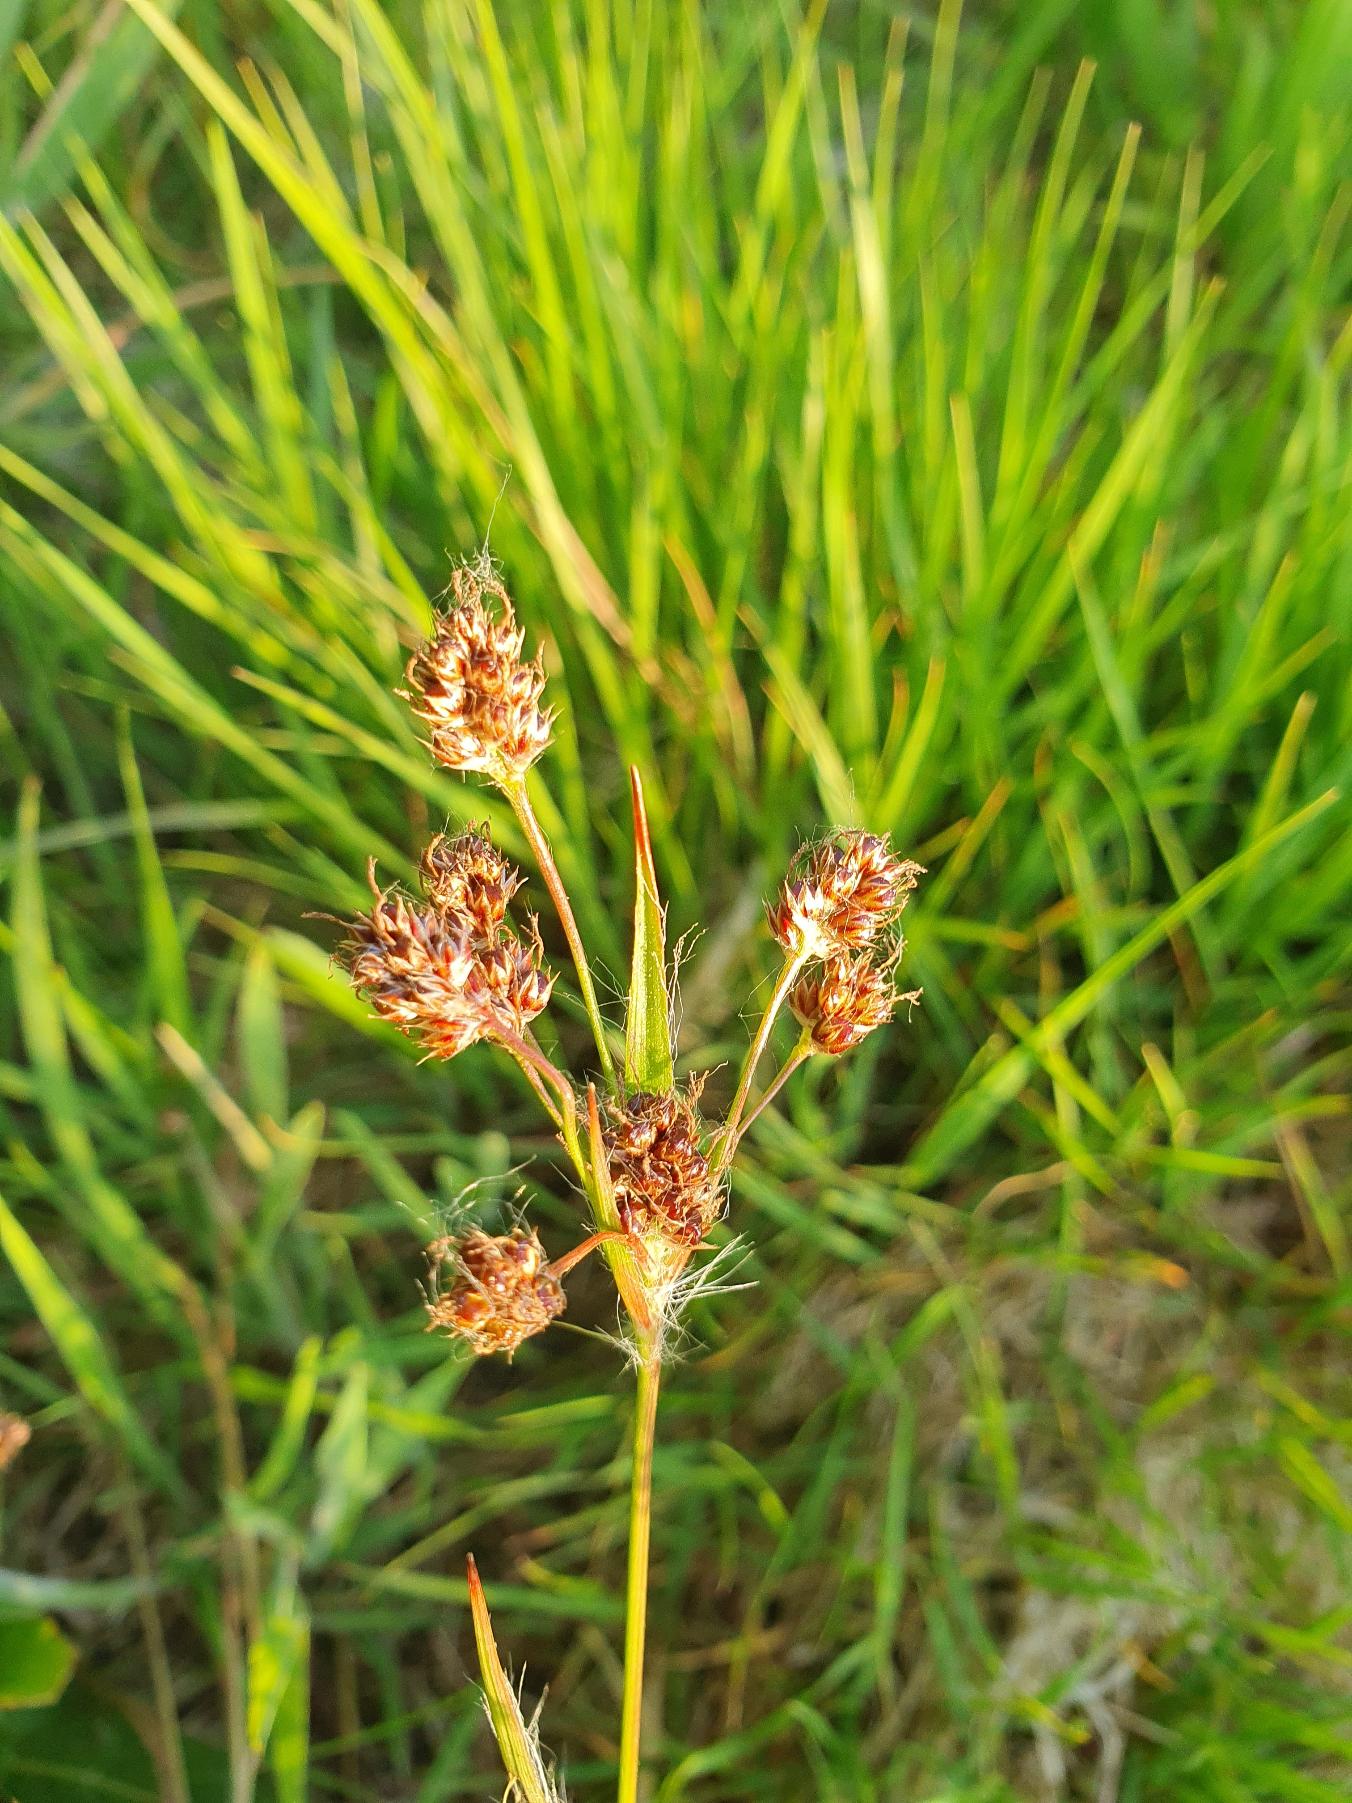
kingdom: Plantae
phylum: Tracheophyta
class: Liliopsida
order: Poales
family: Juncaceae
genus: Luzula
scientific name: Luzula multiflora
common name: Mangeblomstret frytle
